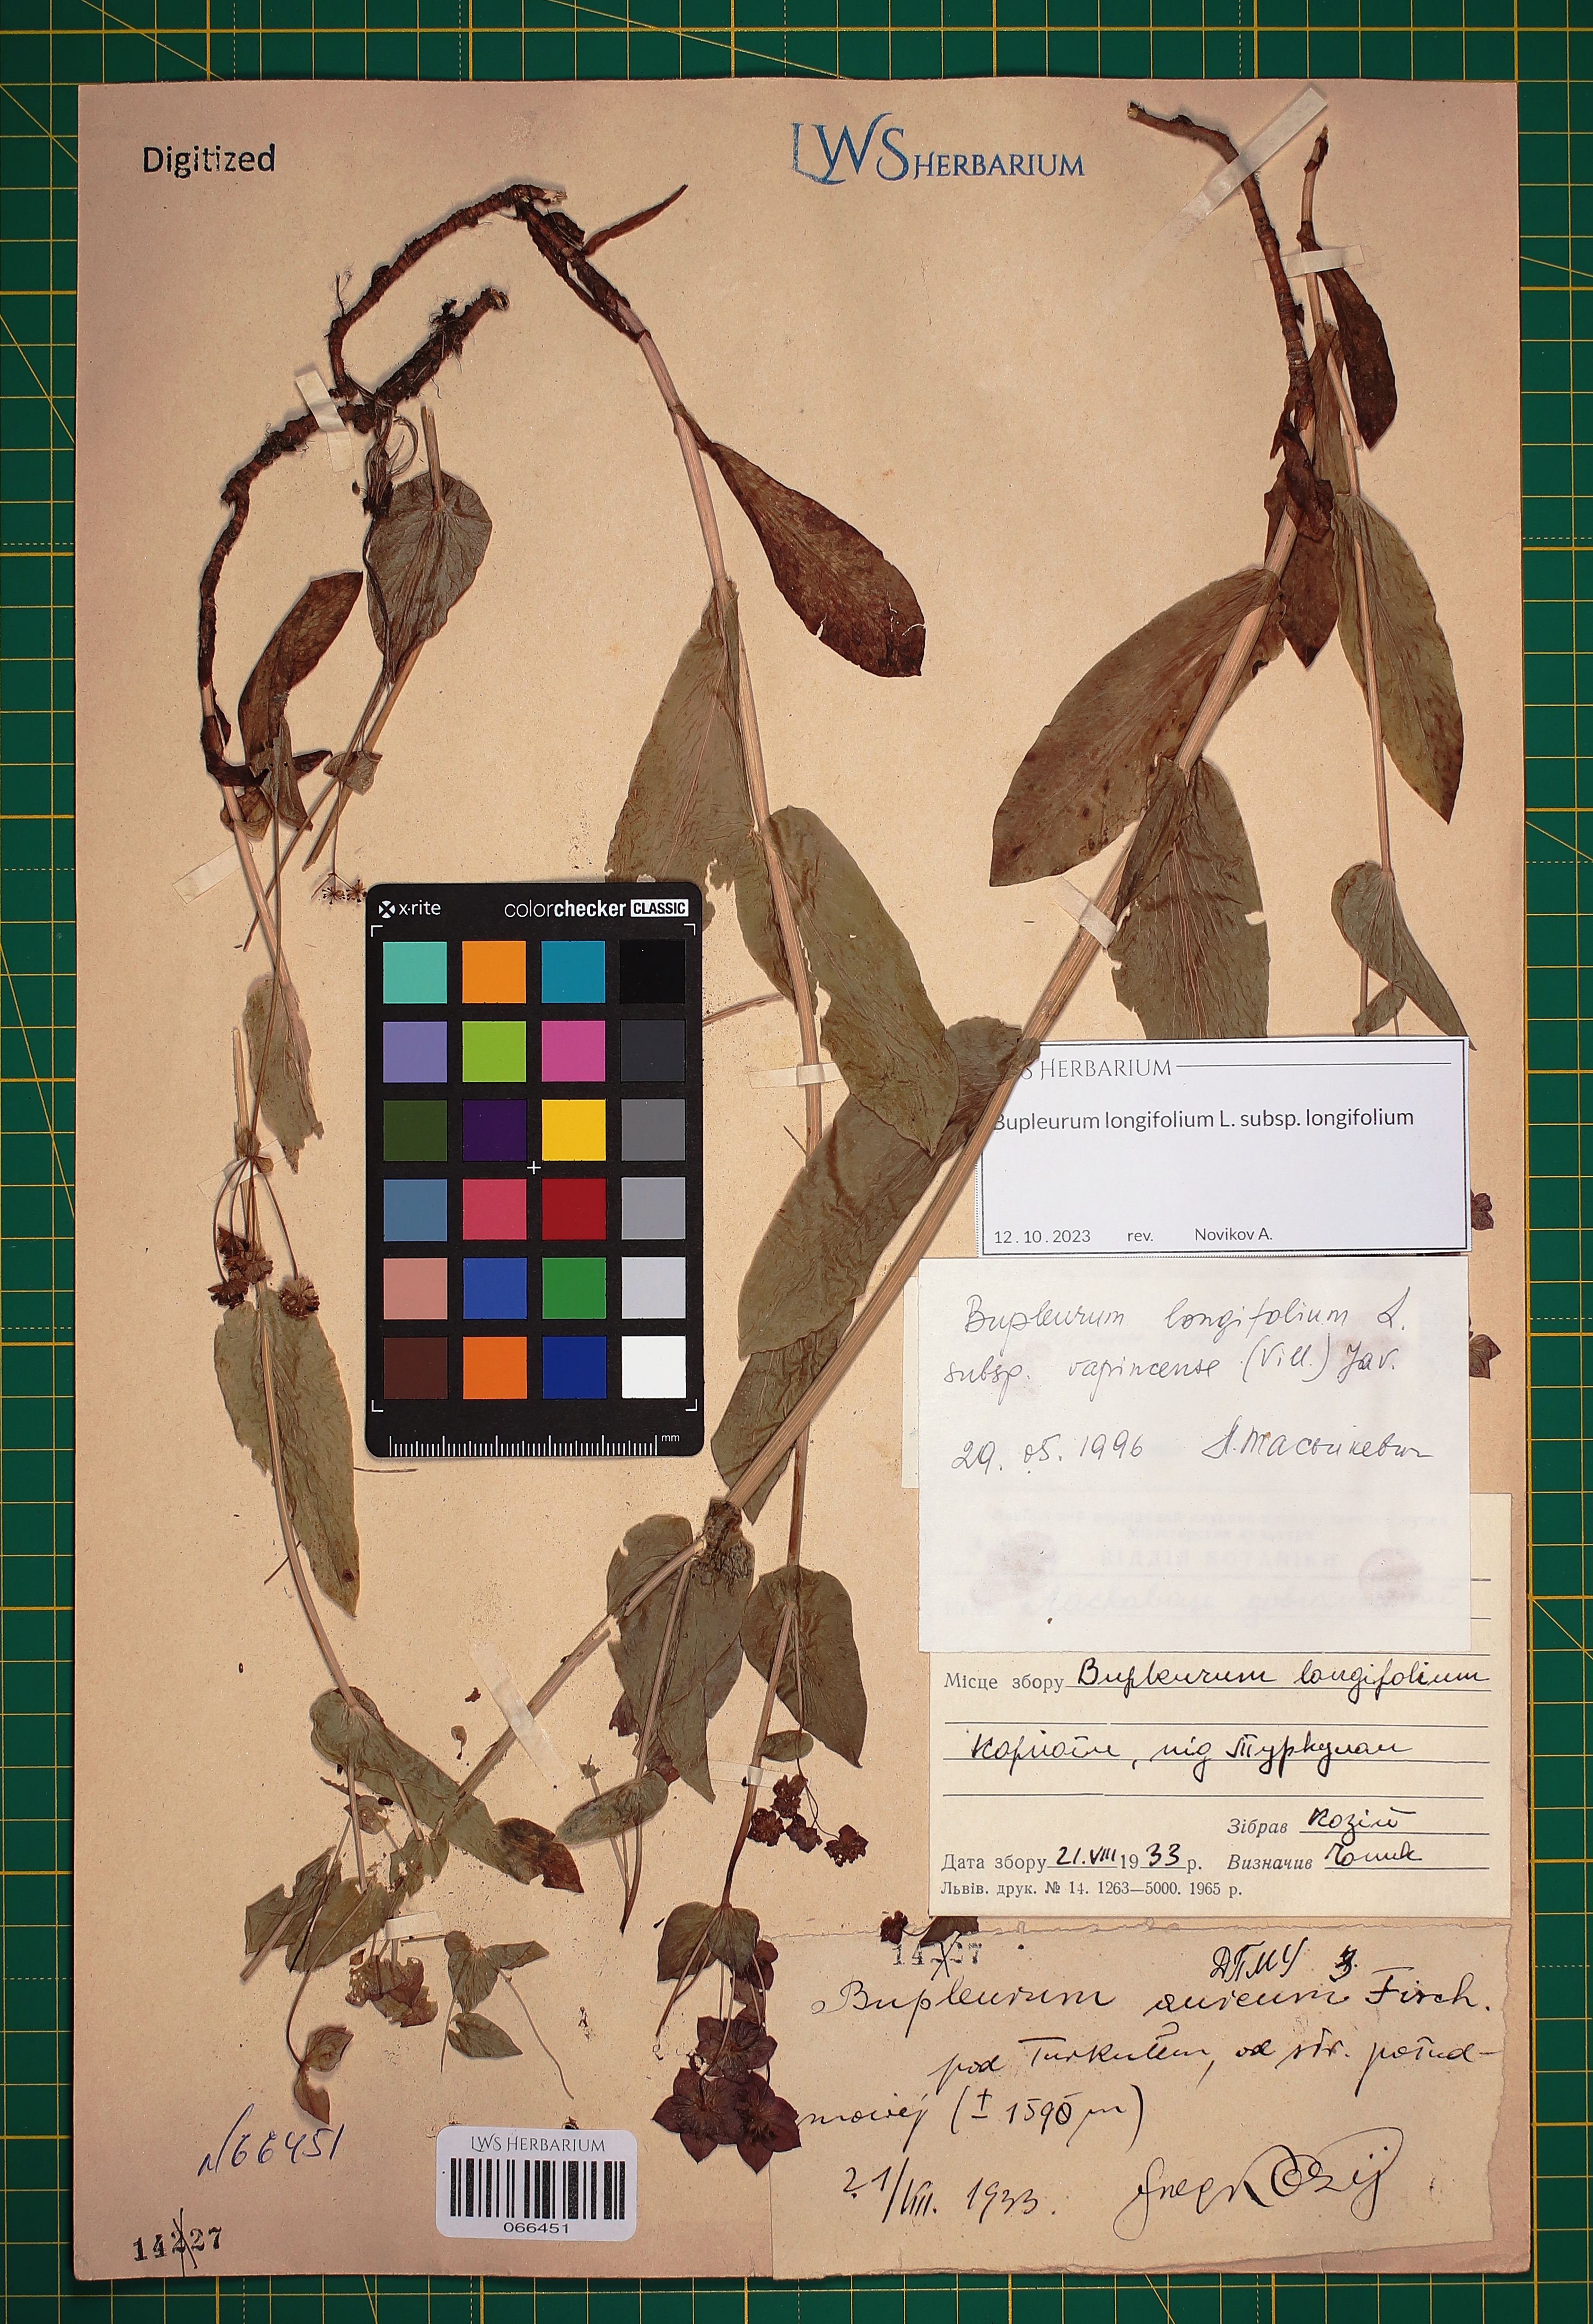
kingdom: Plantae
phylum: Tracheophyta
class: Magnoliopsida
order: Apiales
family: Apiaceae
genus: Bupleurum
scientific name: Bupleurum longifolium
